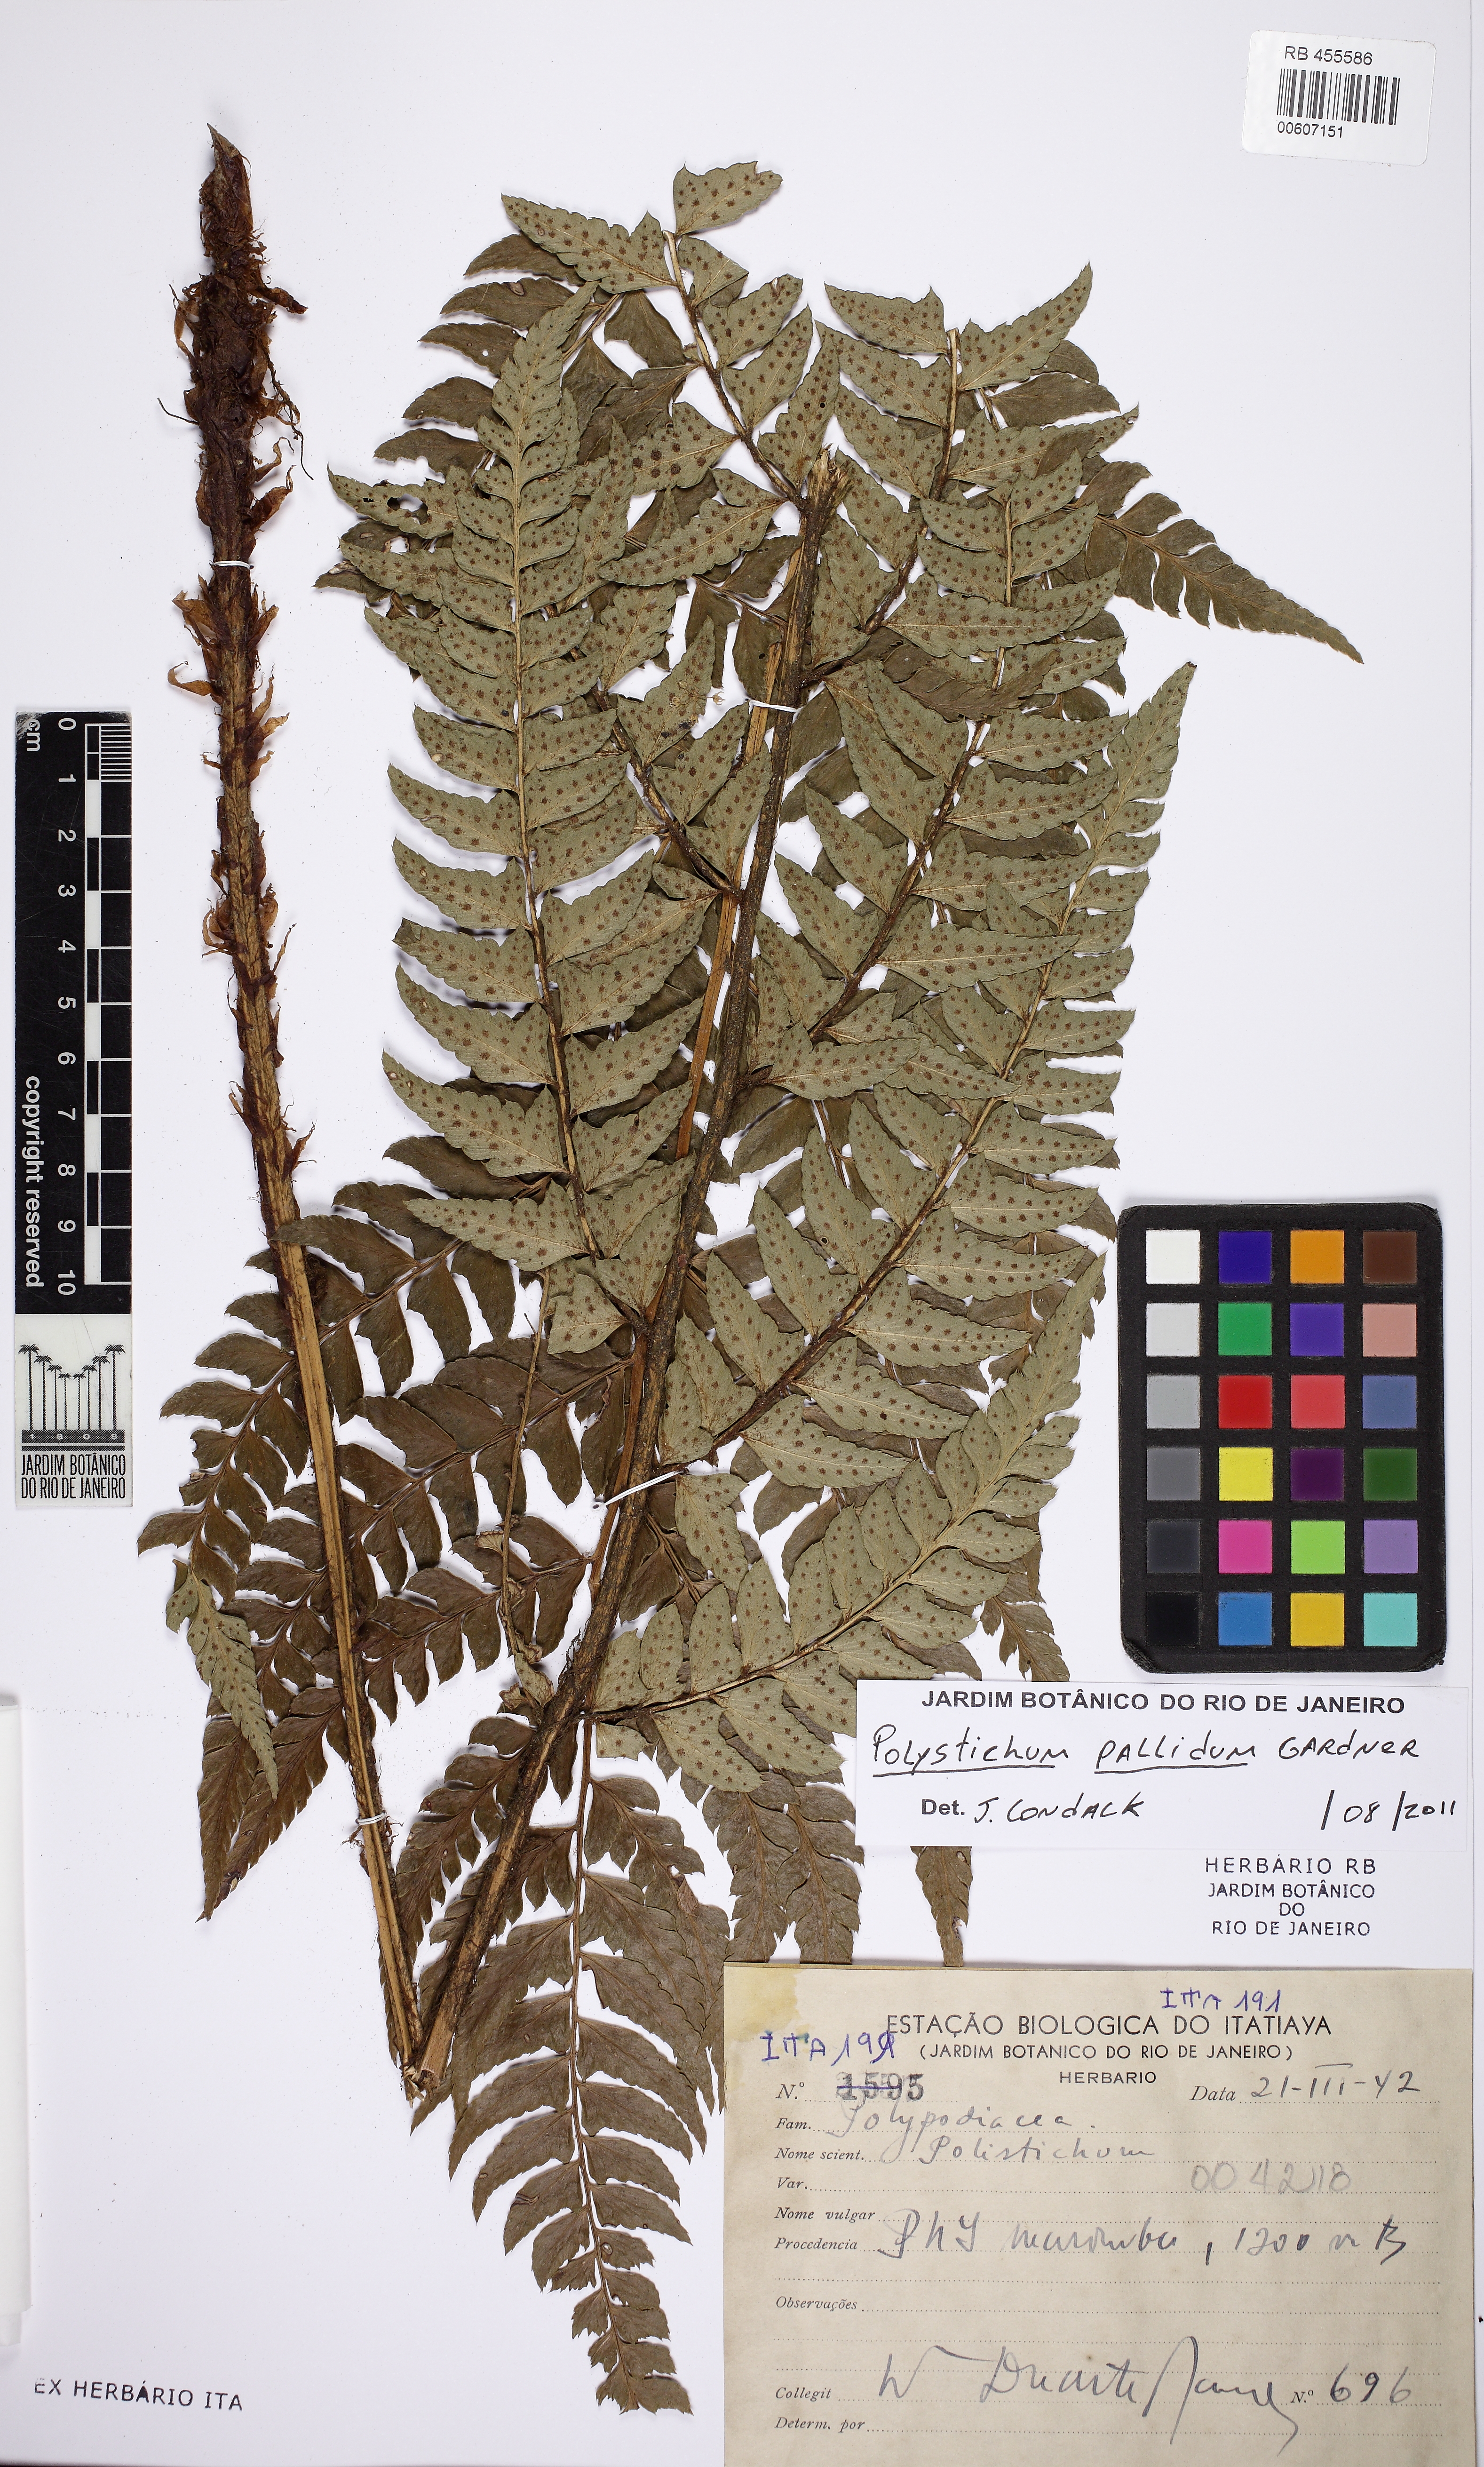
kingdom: Plantae
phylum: Tracheophyta
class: Polypodiopsida
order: Polypodiales
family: Dryopteridaceae
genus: Polystichum
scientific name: Polystichum platyphyllum
